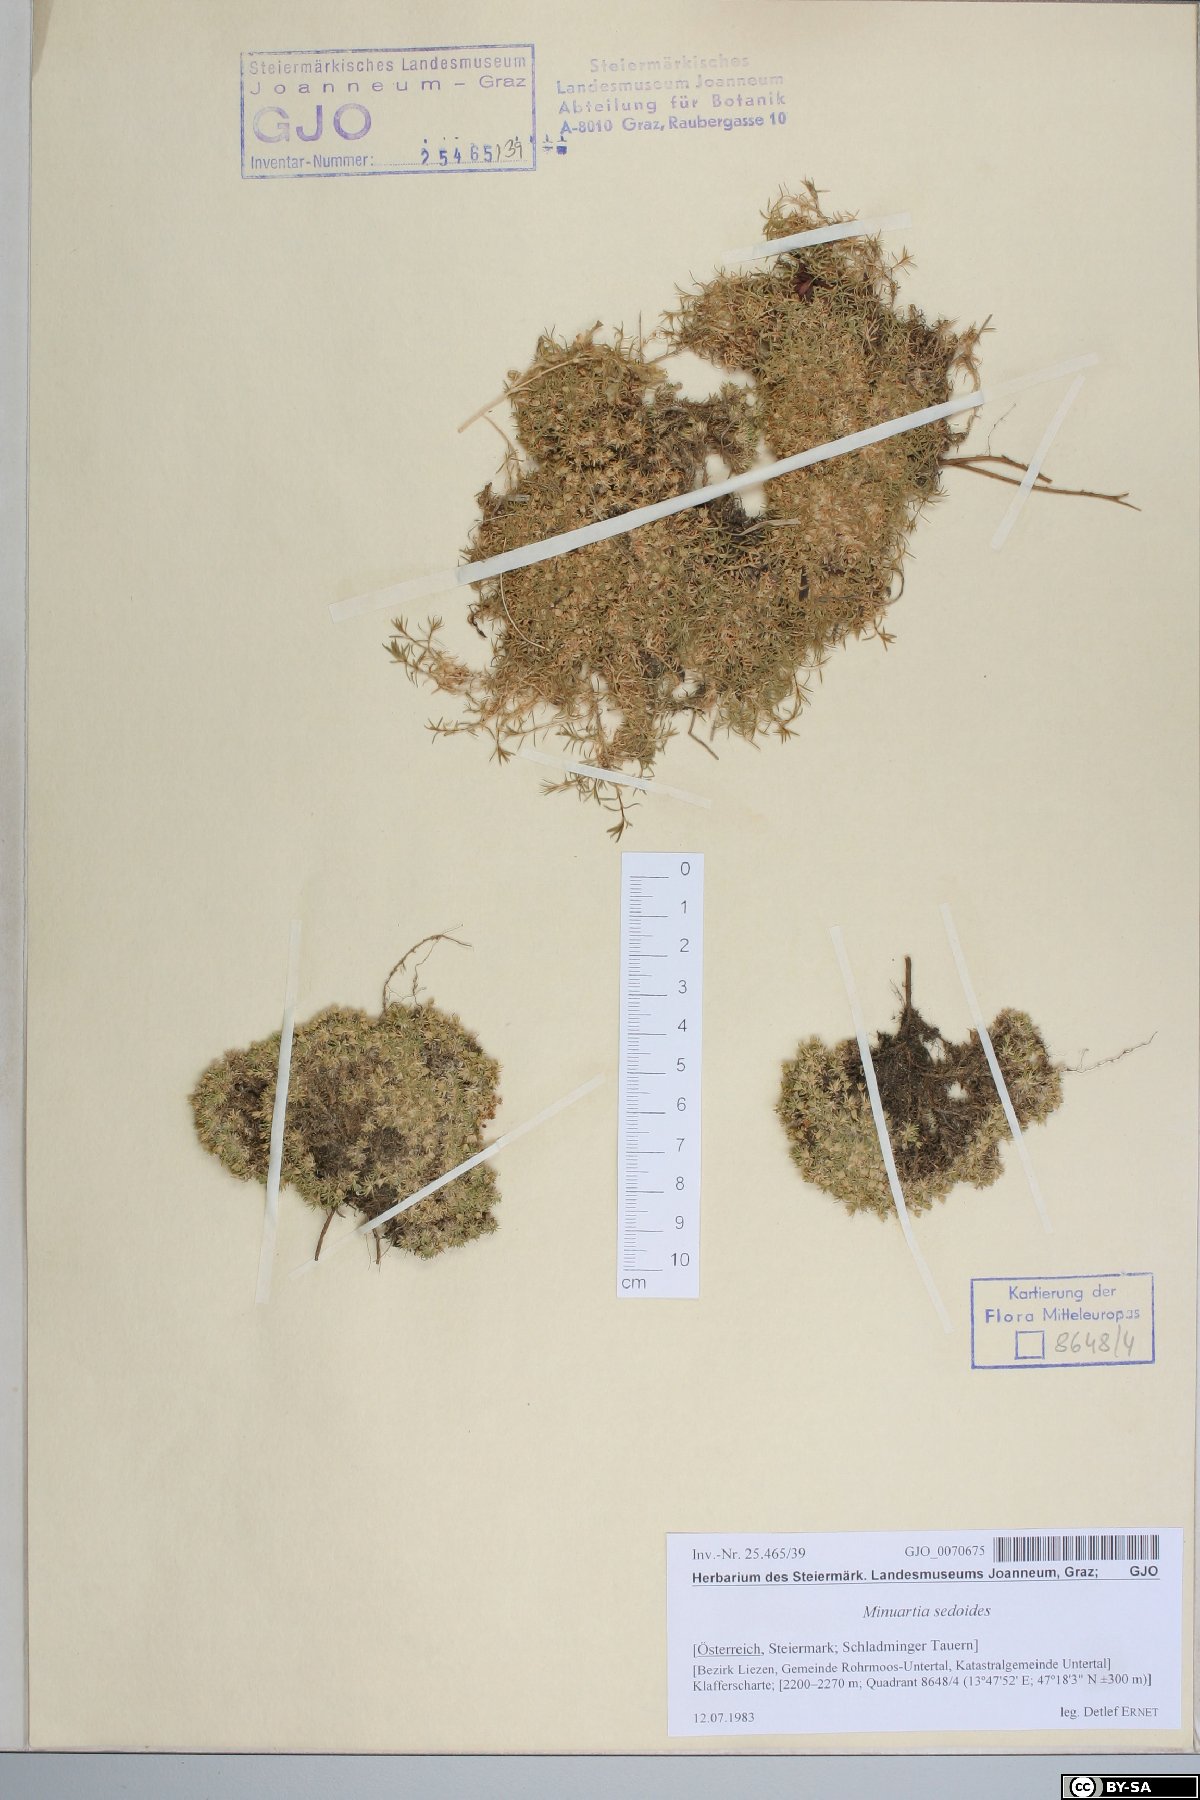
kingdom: Plantae
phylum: Tracheophyta
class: Magnoliopsida
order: Caryophyllales
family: Caryophyllaceae
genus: Cherleria
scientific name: Cherleria sedoides
